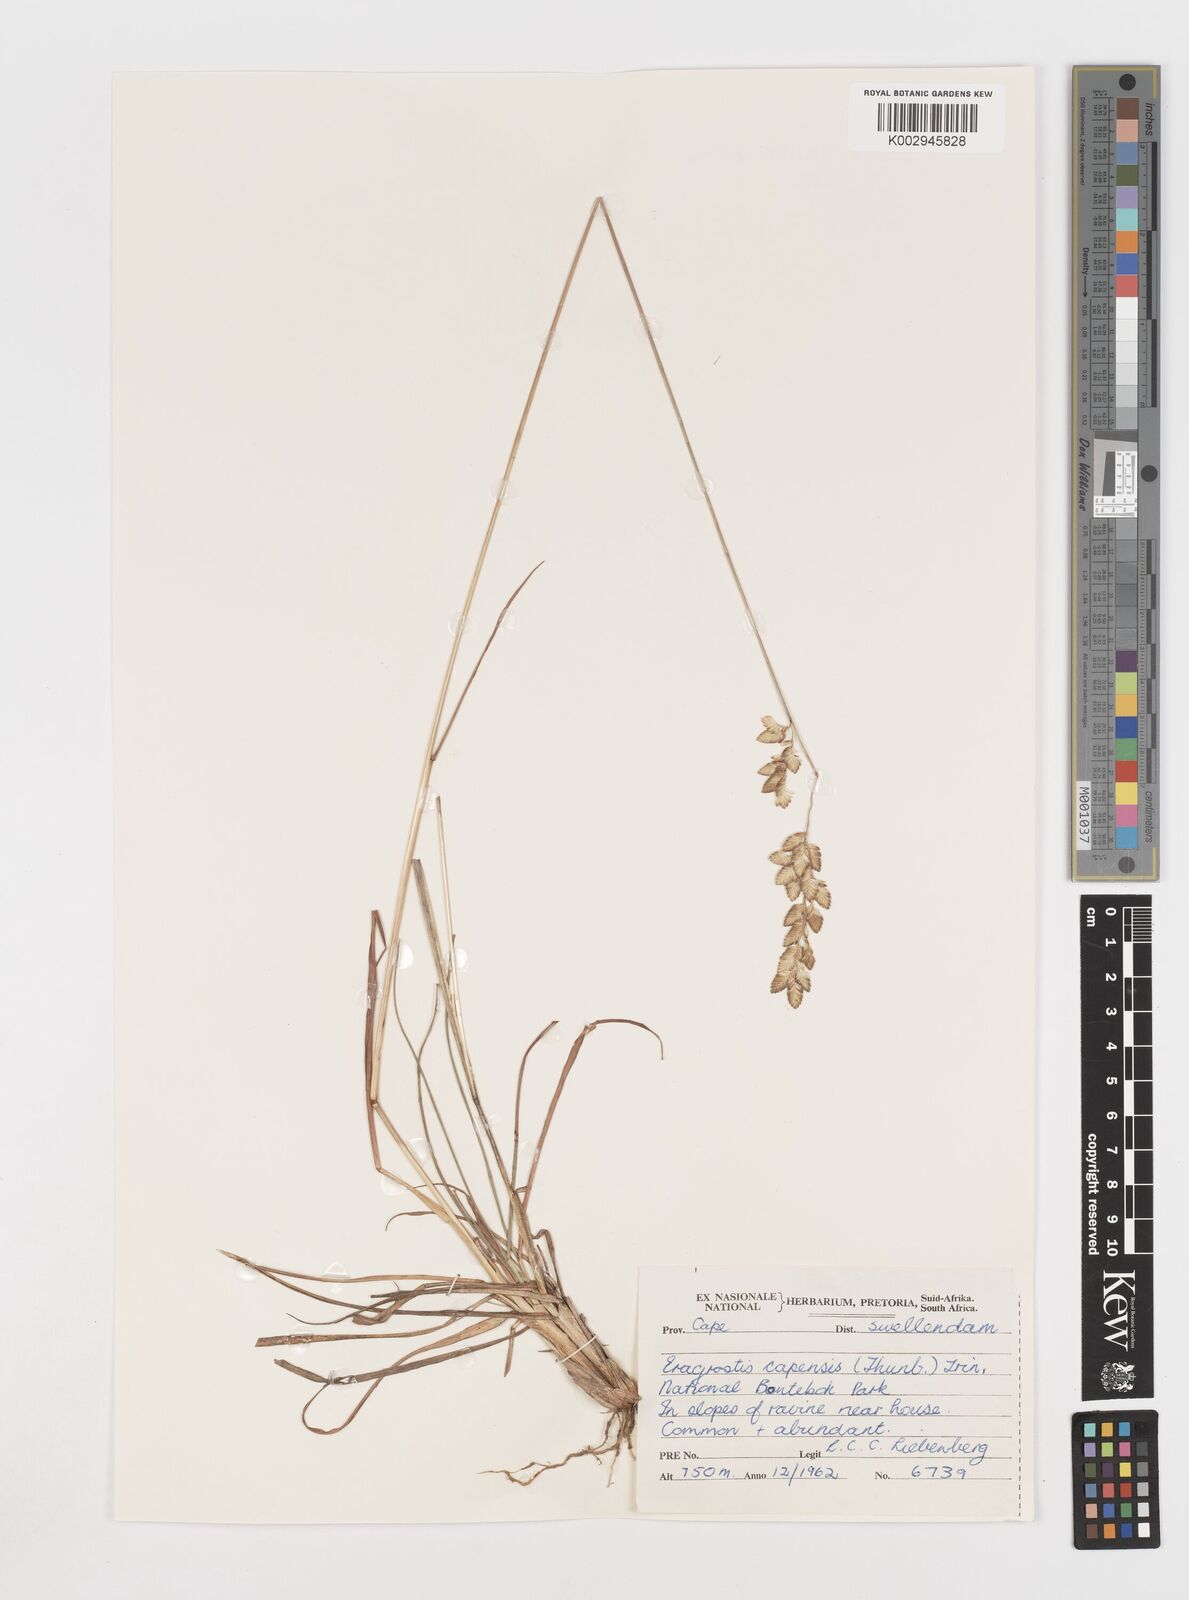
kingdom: Plantae
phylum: Tracheophyta
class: Liliopsida
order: Poales
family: Poaceae
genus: Eragrostis
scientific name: Eragrostis capensis
